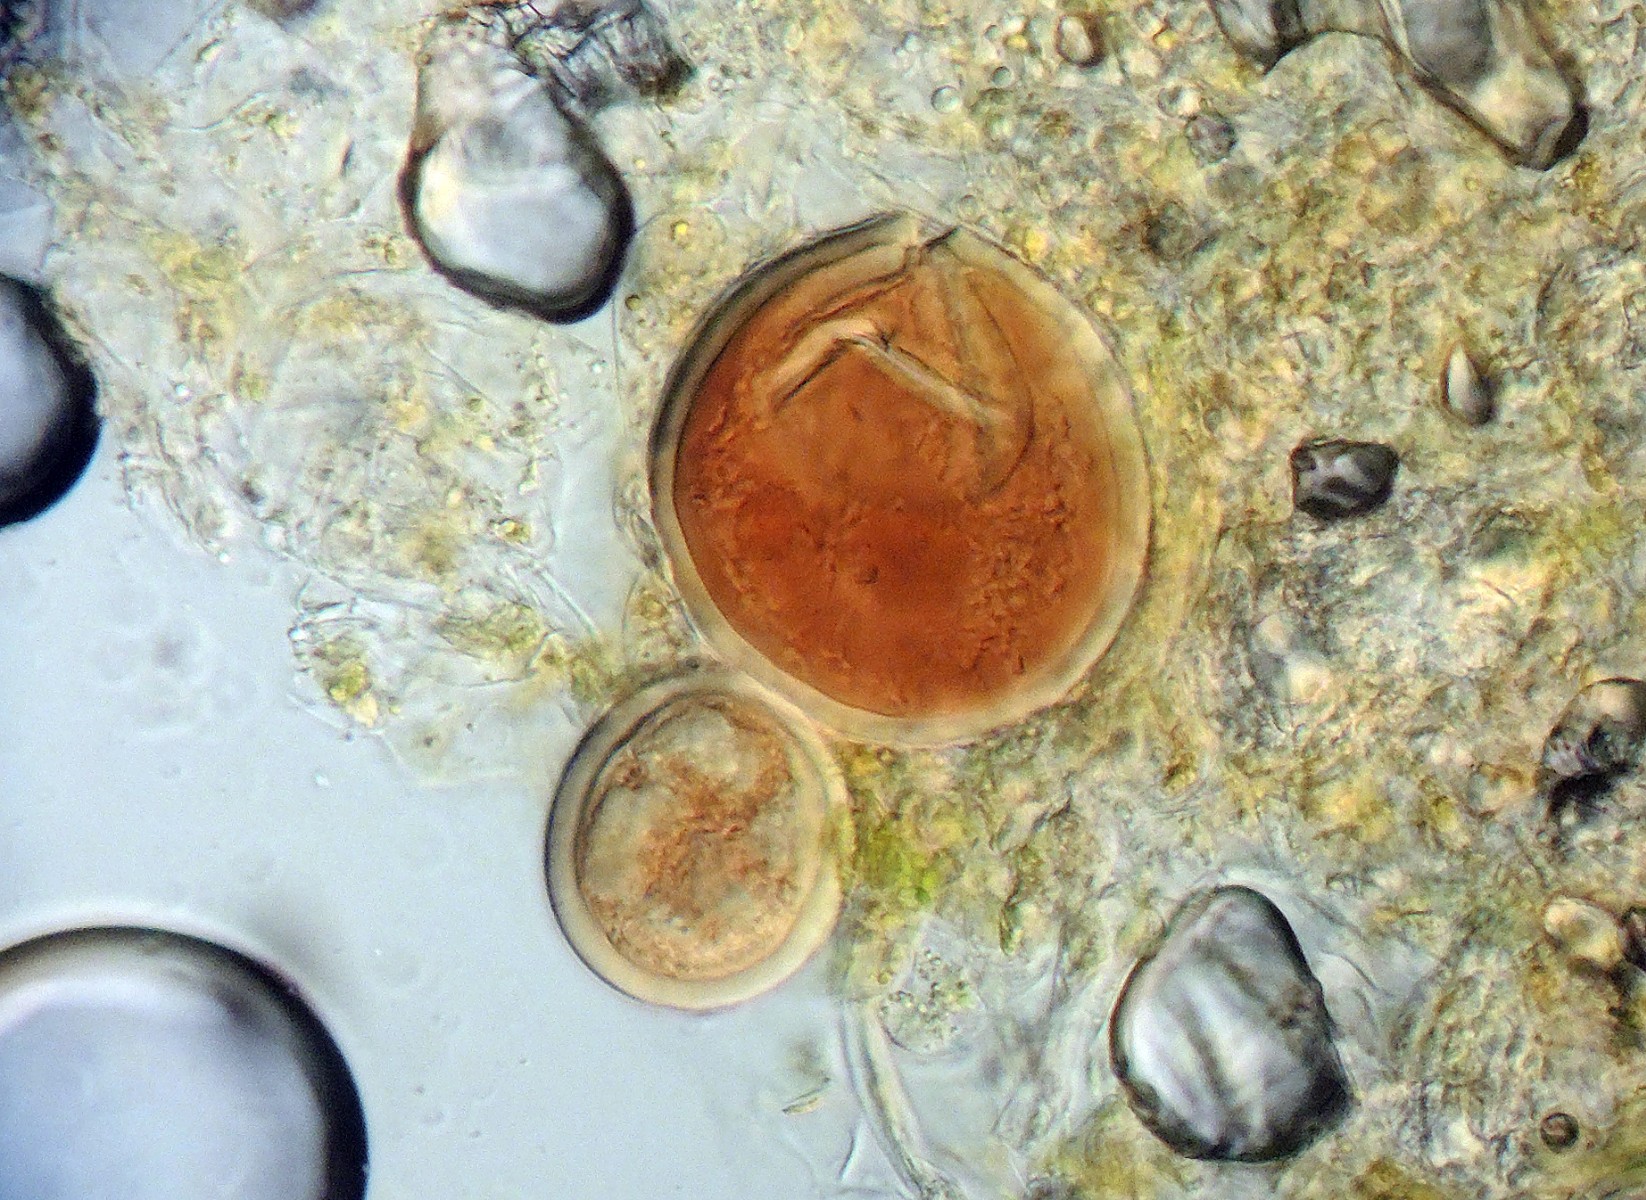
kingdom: Chromista
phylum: Oomycota
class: Peronosporea
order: Peronosporales
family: Peronosporaceae
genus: Hyaloperonospora
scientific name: Hyaloperonospora niessliana
